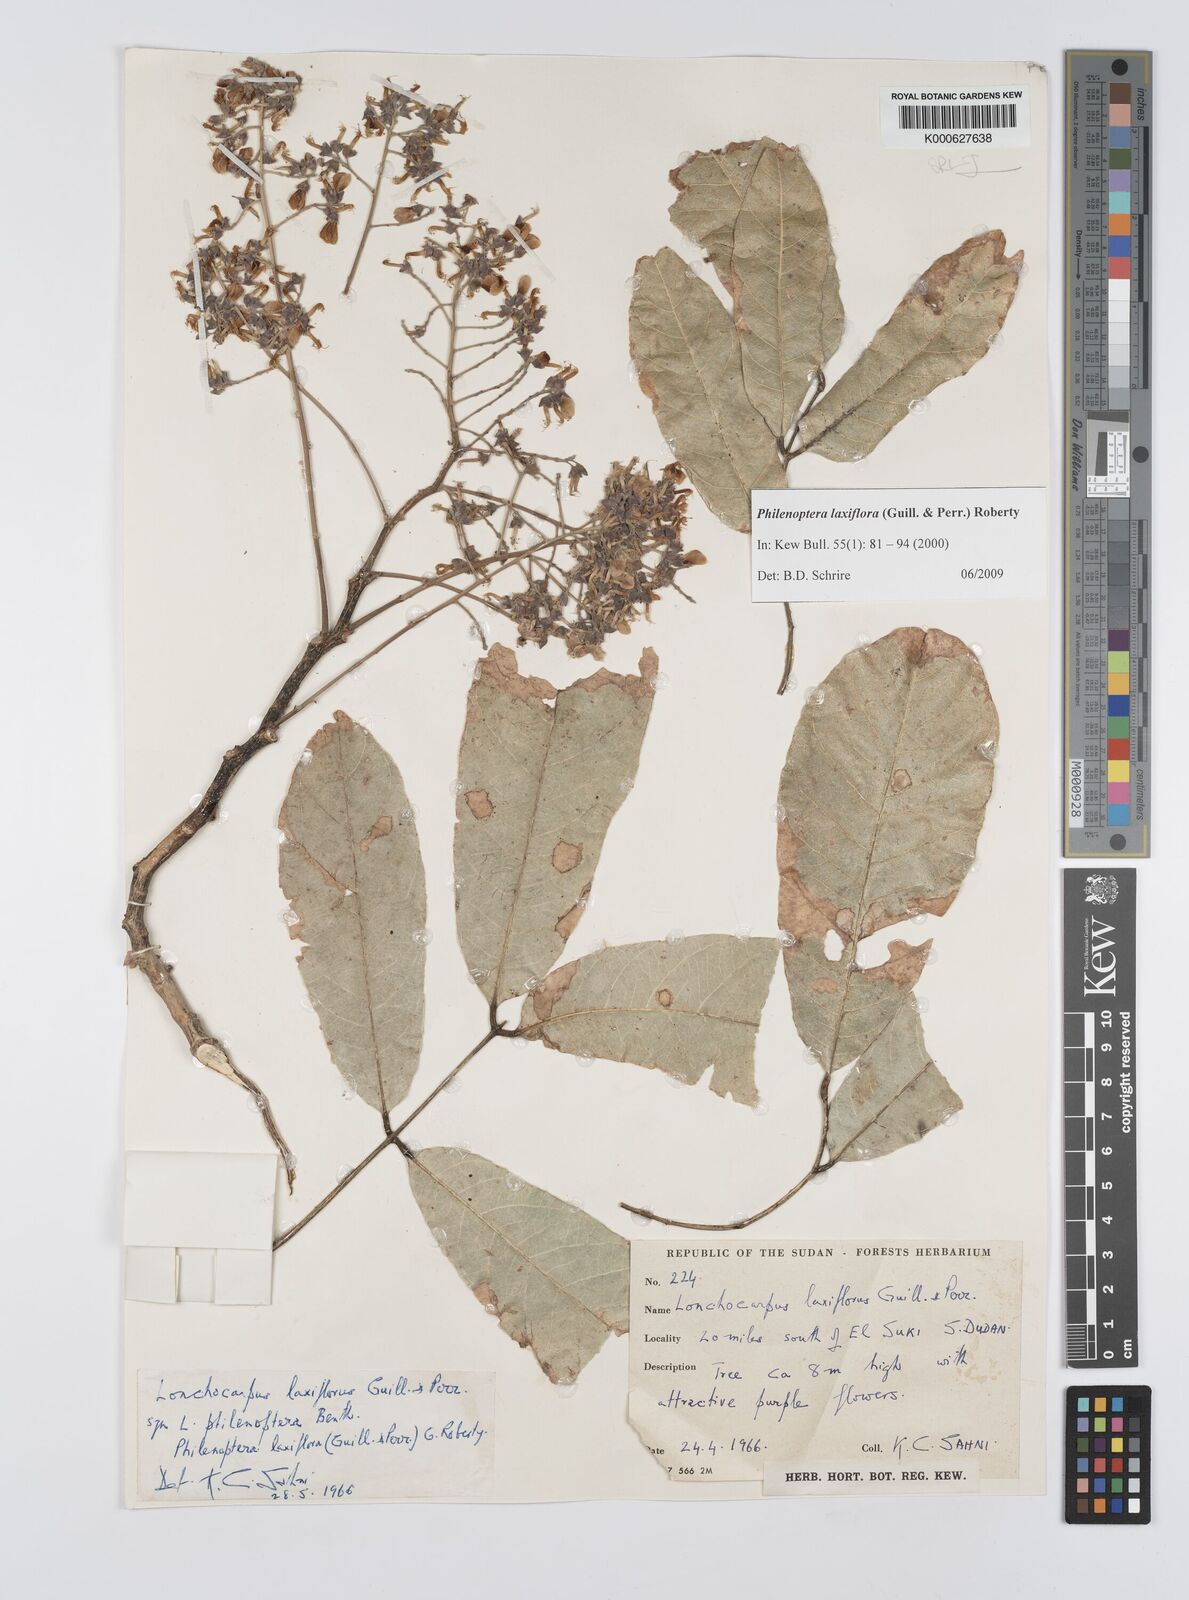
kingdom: Plantae
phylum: Tracheophyta
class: Magnoliopsida
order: Fabales
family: Fabaceae
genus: Philenoptera
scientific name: Philenoptera laxiflora
